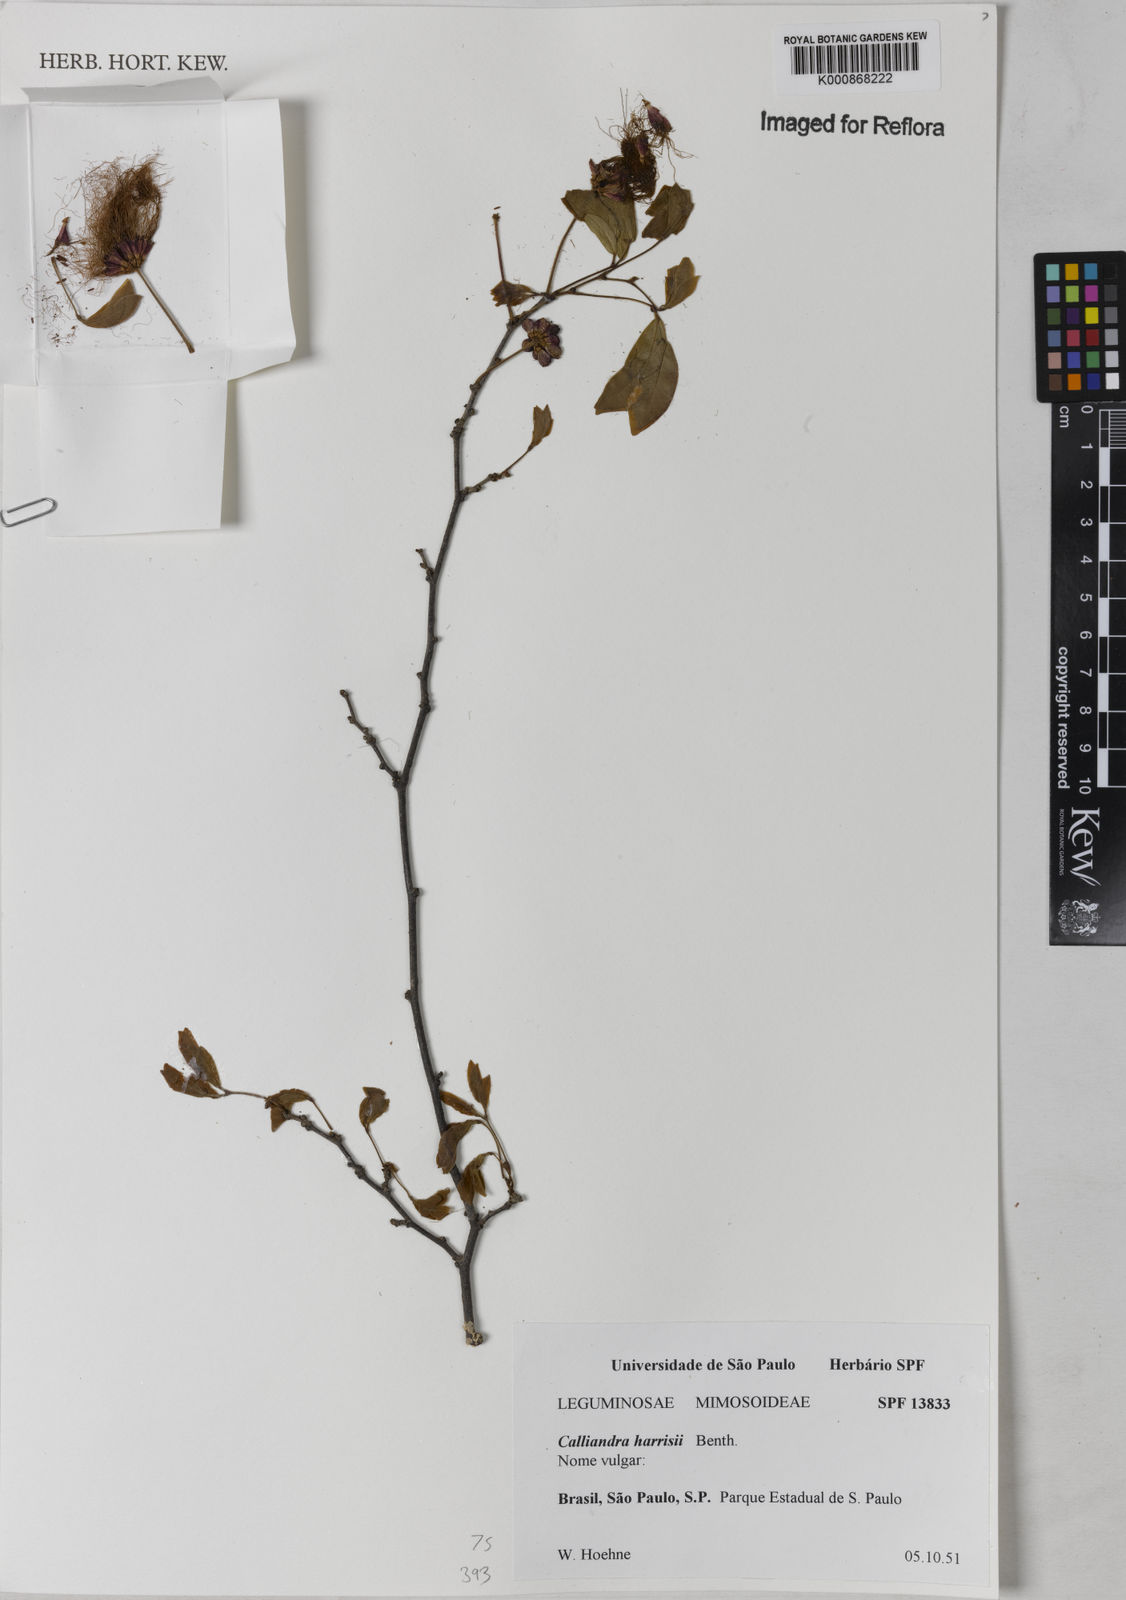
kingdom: Plantae
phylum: Tracheophyta
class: Magnoliopsida
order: Fabales
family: Fabaceae
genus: Calliandra
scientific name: Calliandra harrisii
